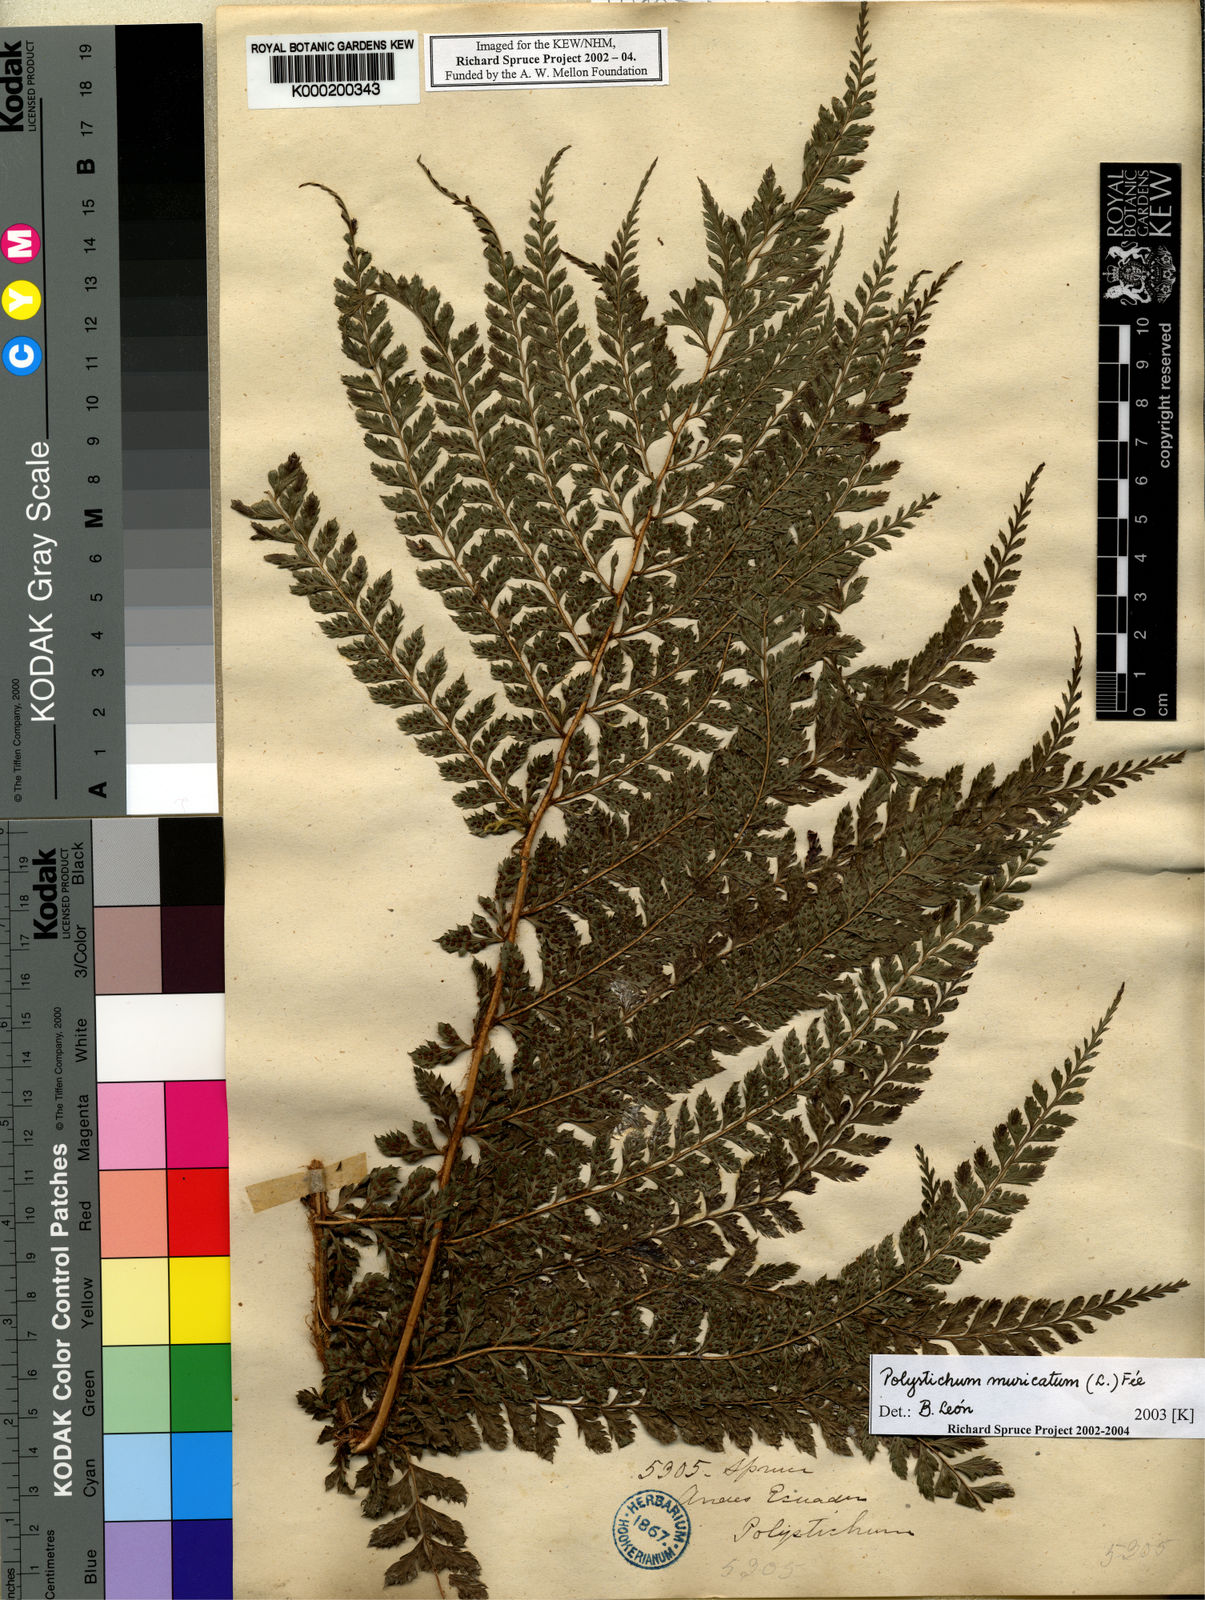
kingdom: Plantae
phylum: Tracheophyta
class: Polypodiopsida
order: Polypodiales
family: Dryopteridaceae
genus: Polystichum
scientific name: Polystichum
